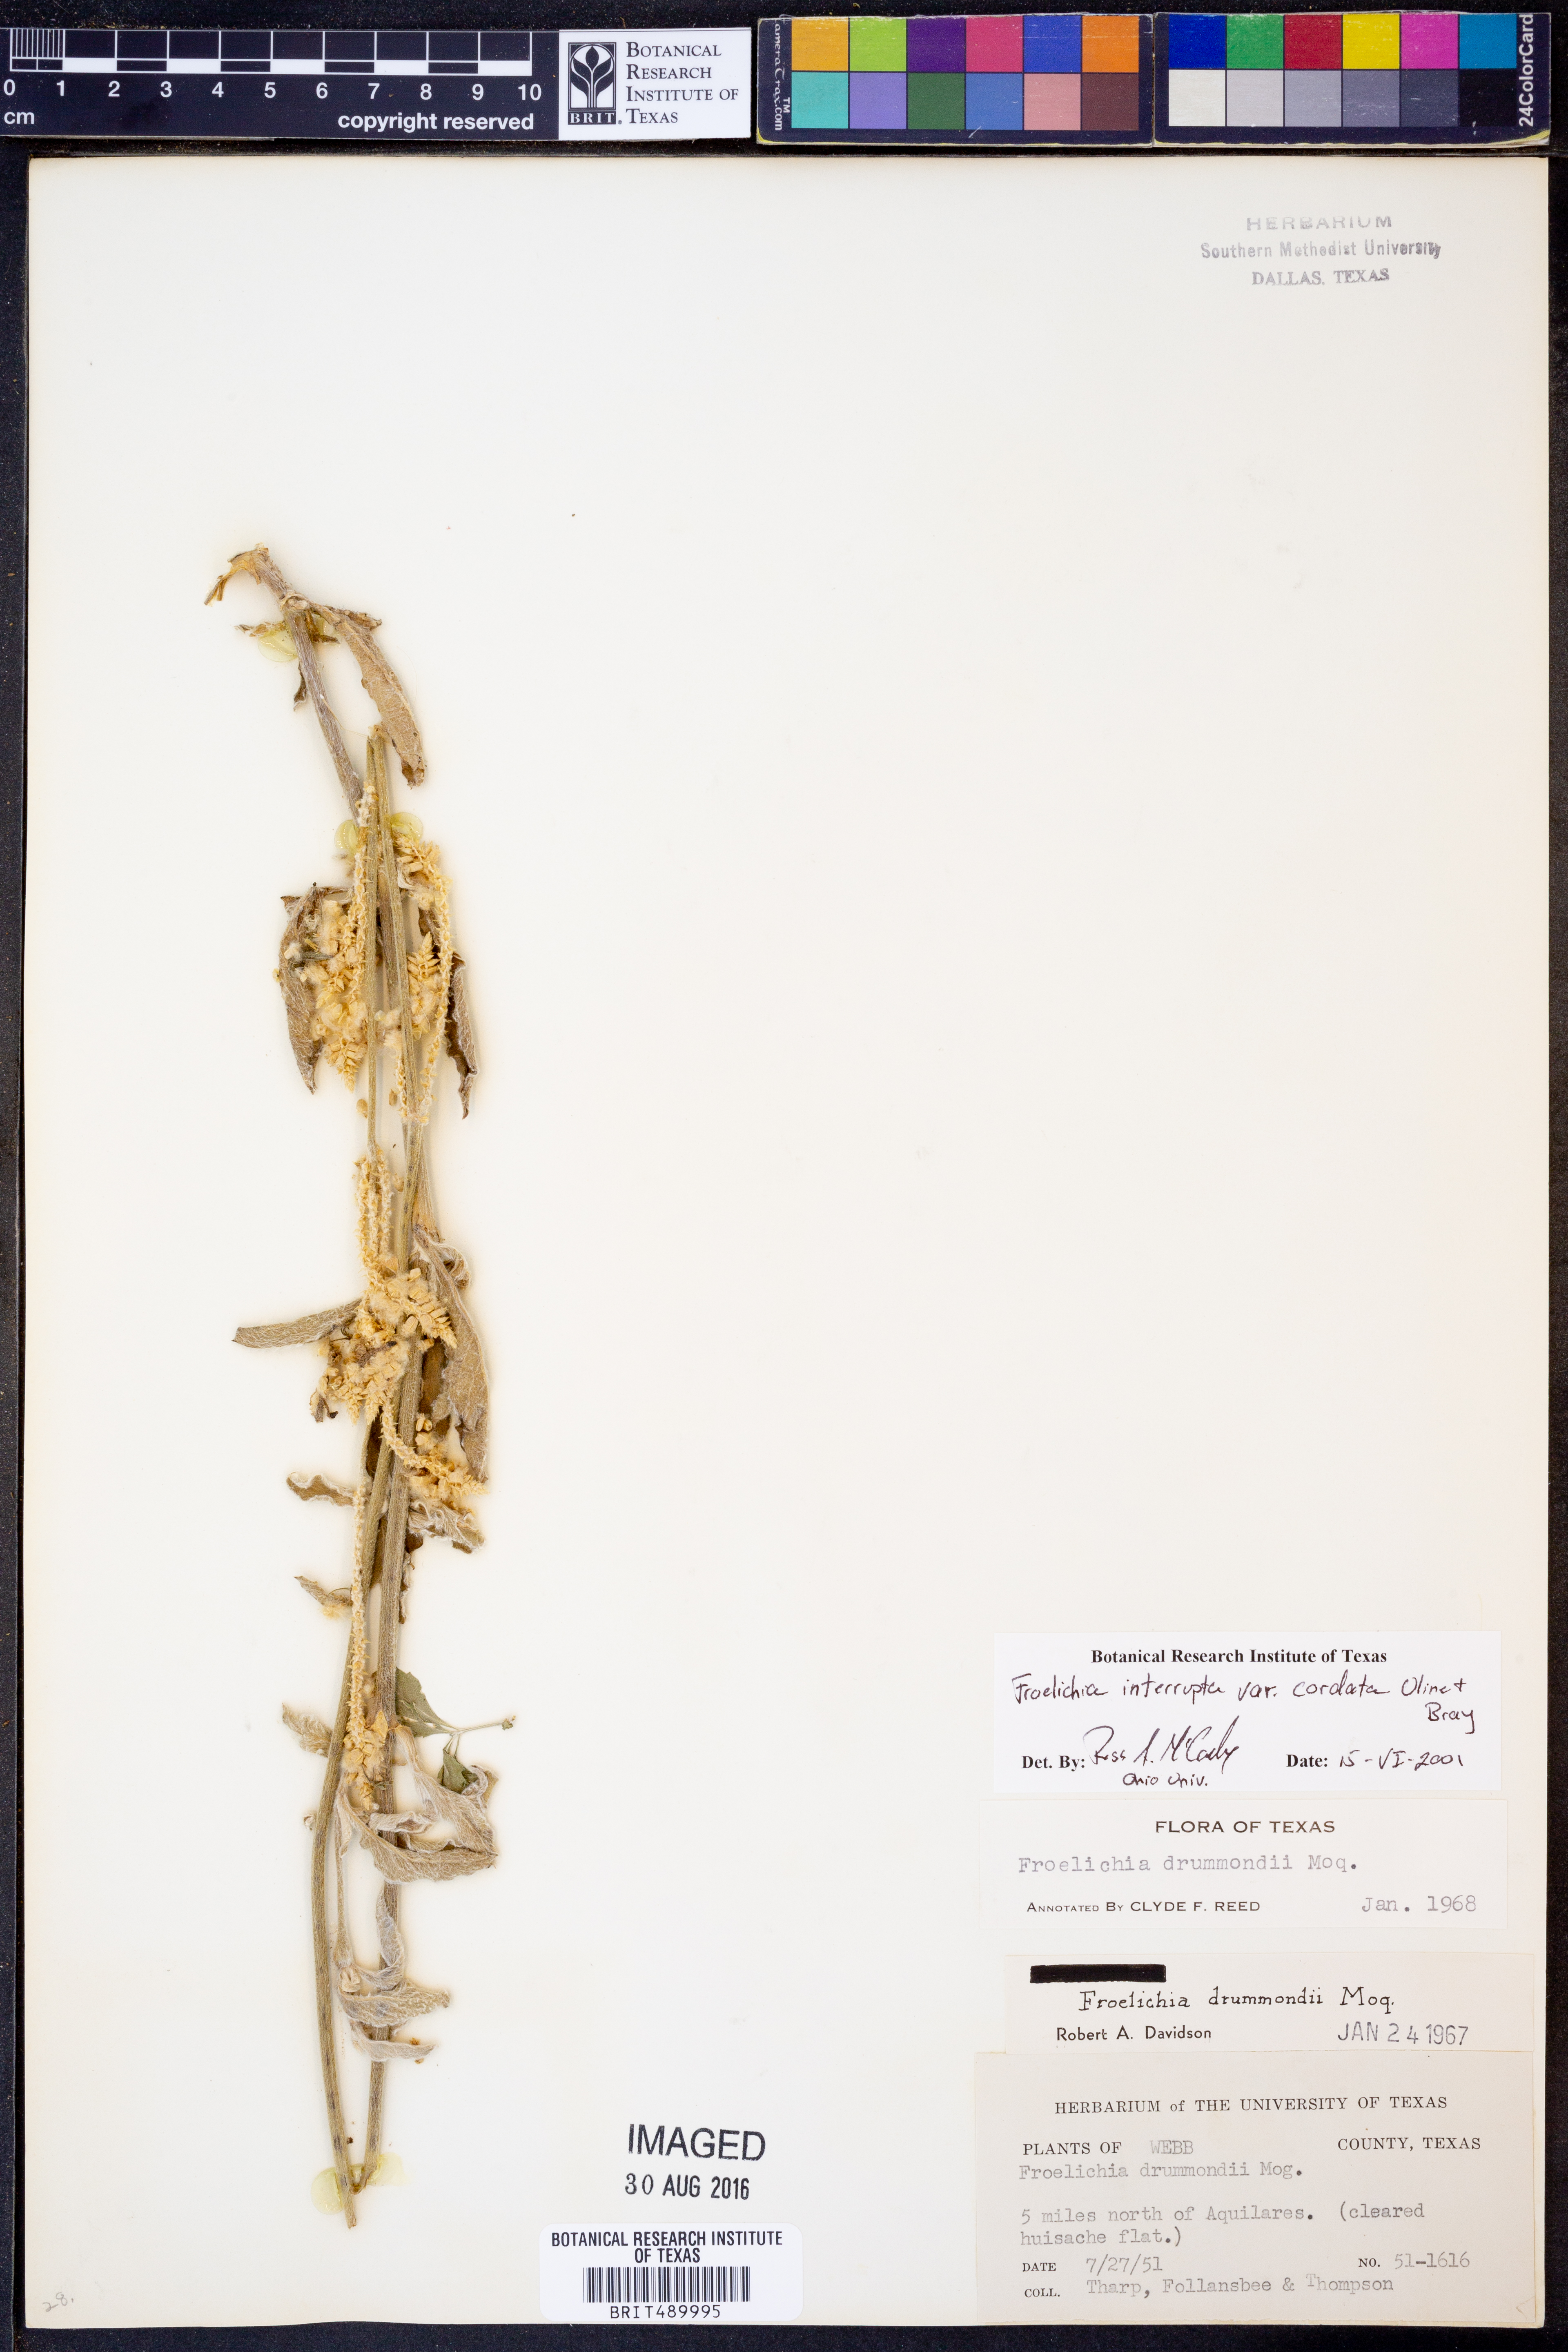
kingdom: Plantae
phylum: Tracheophyta
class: Magnoliopsida
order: Caryophyllales
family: Amaranthaceae
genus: Froelichia
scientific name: Froelichia texana
